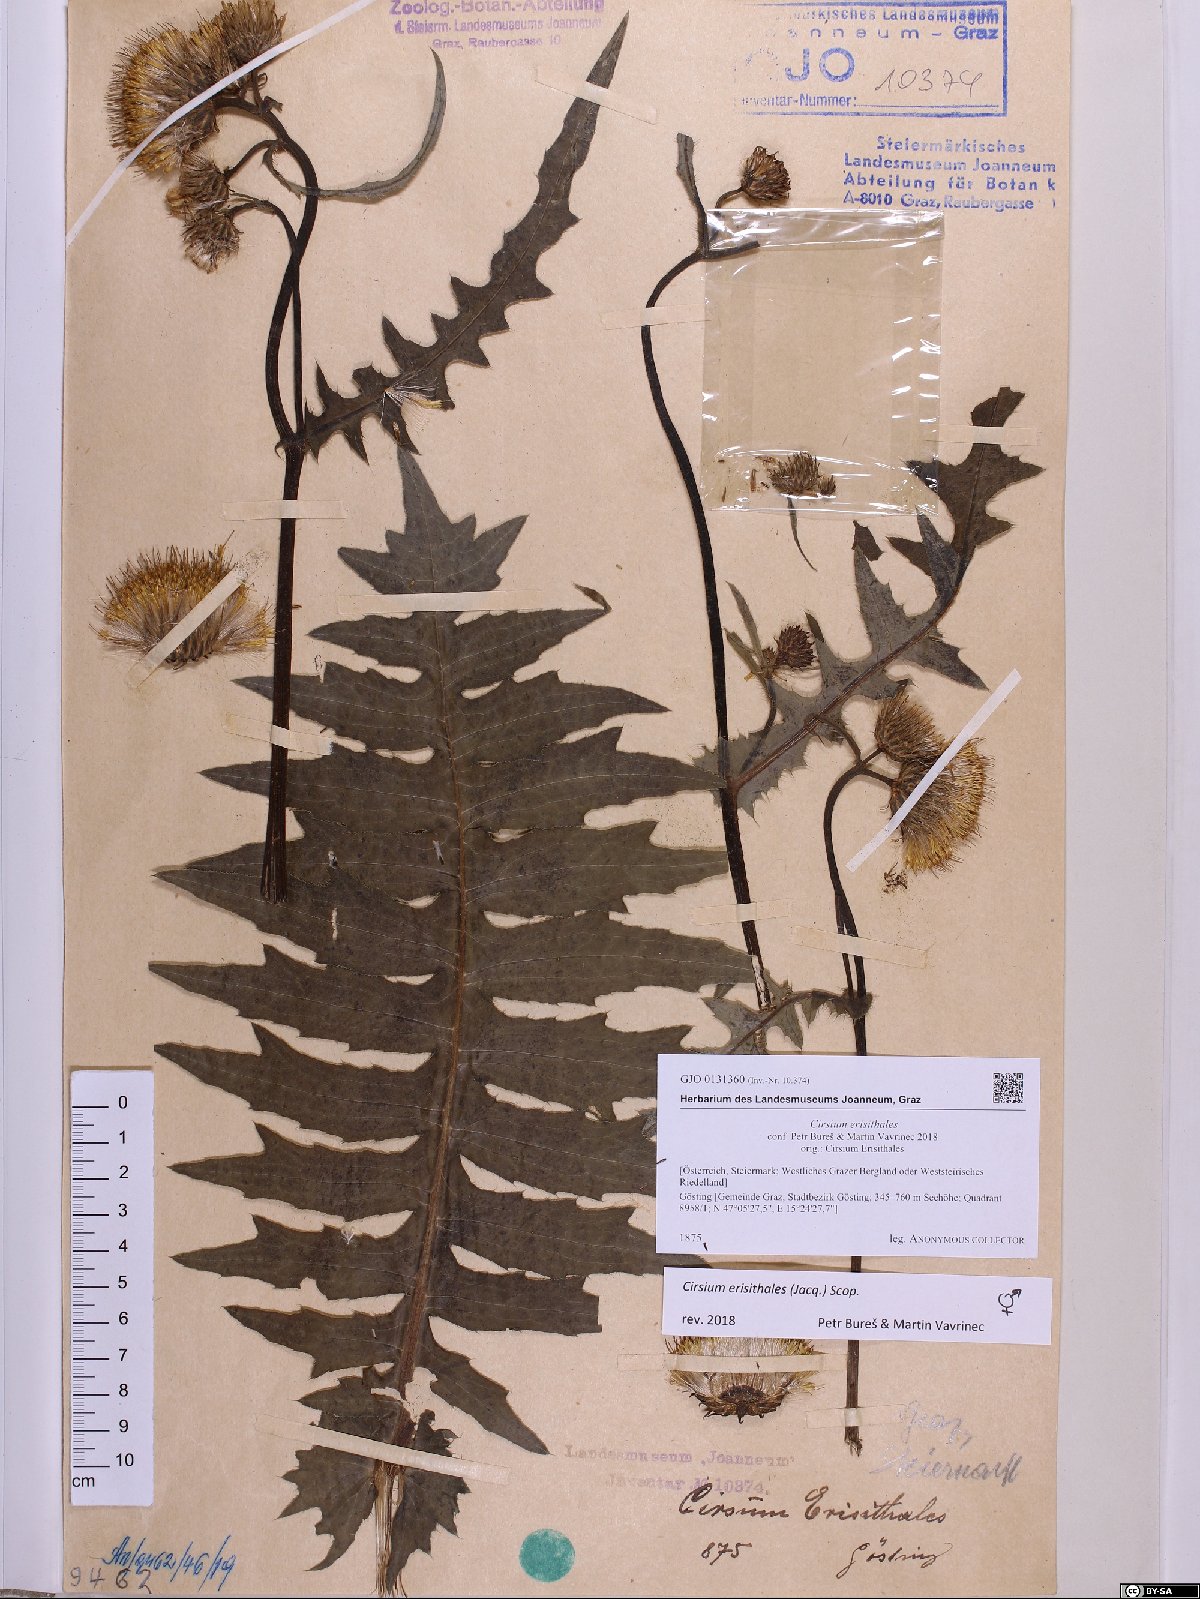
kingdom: Plantae
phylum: Tracheophyta
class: Magnoliopsida
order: Asterales
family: Asteraceae
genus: Cirsium
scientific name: Cirsium erisithales
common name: Yellow thistle
